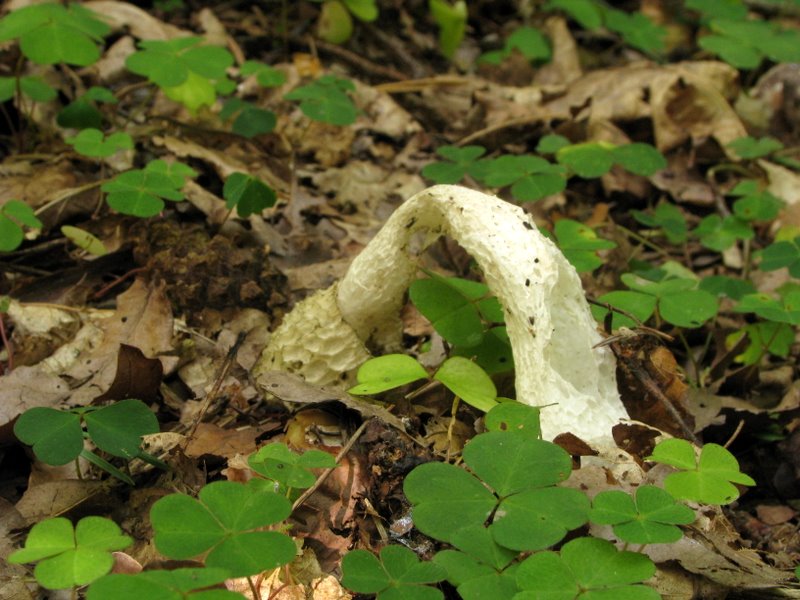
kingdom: Fungi
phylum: Basidiomycota
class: Agaricomycetes
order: Phallales
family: Phallaceae
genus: Phallus
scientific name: Phallus impudicus
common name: almindelig stinksvamp
